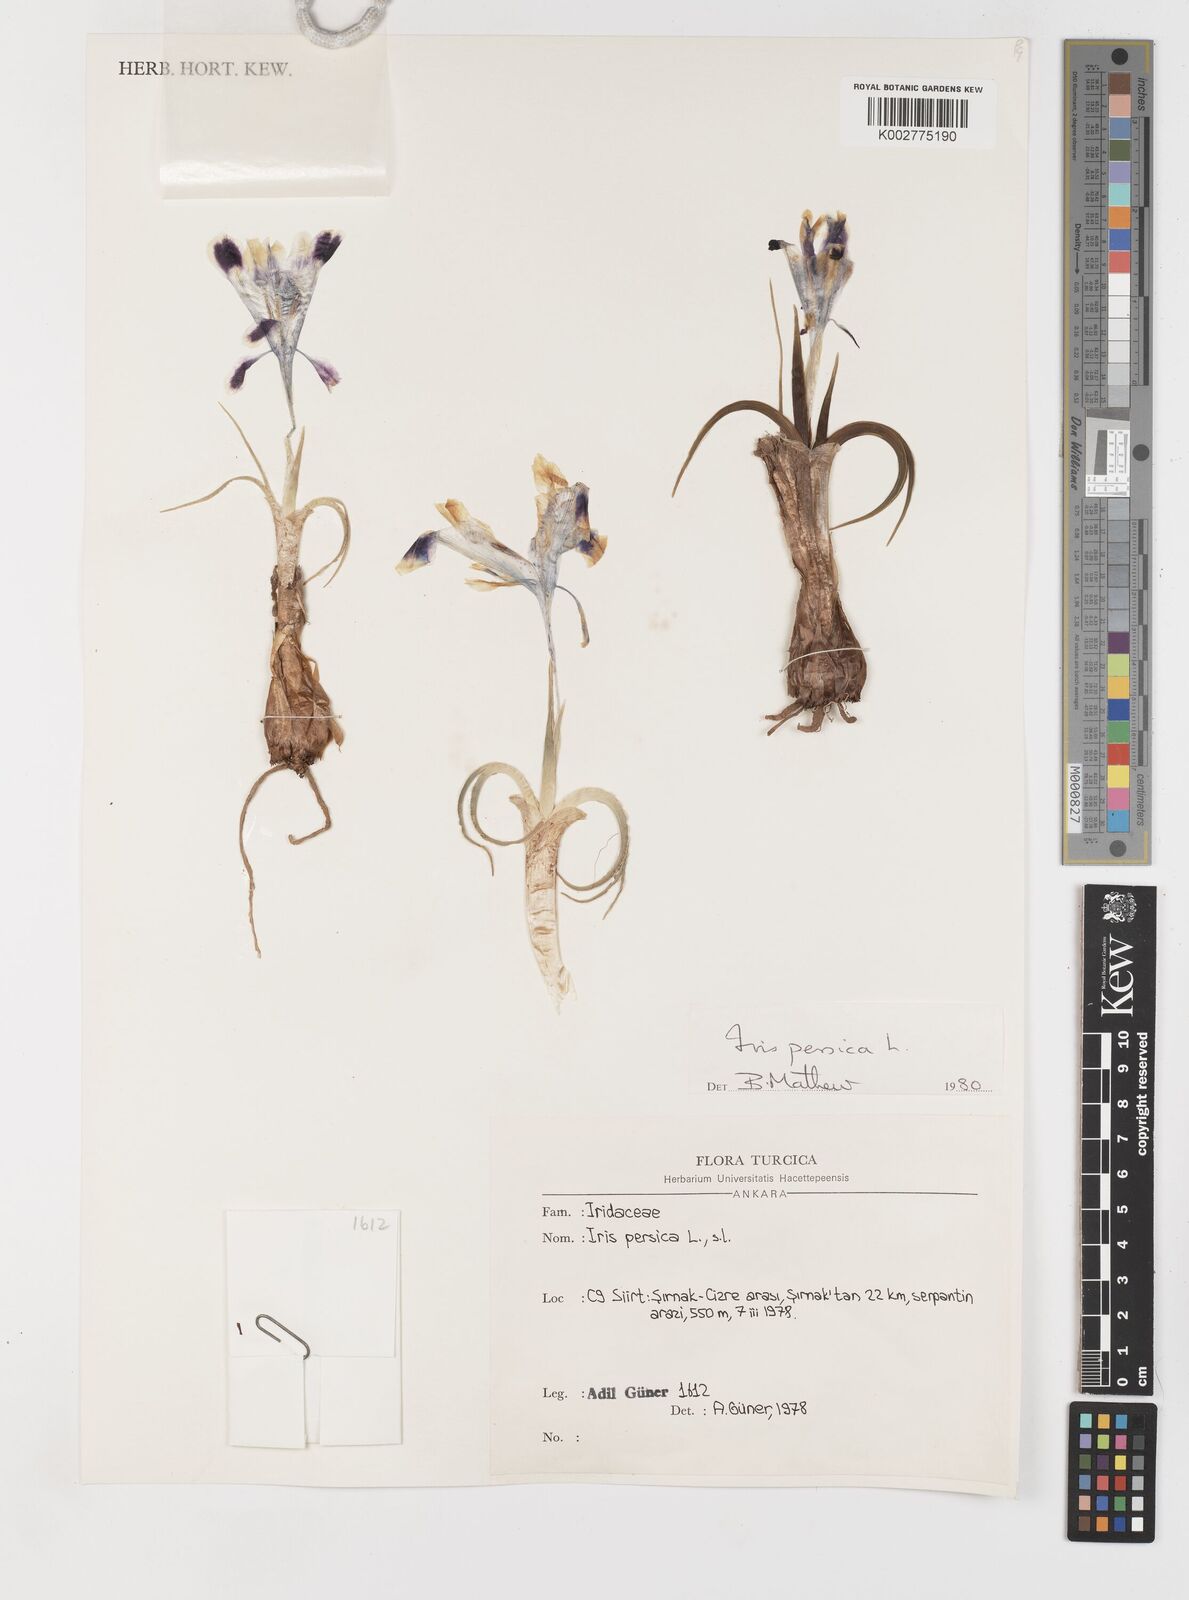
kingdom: Plantae
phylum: Tracheophyta
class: Liliopsida
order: Asparagales
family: Iridaceae
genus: Iris
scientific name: Iris persica
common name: Persian iris
